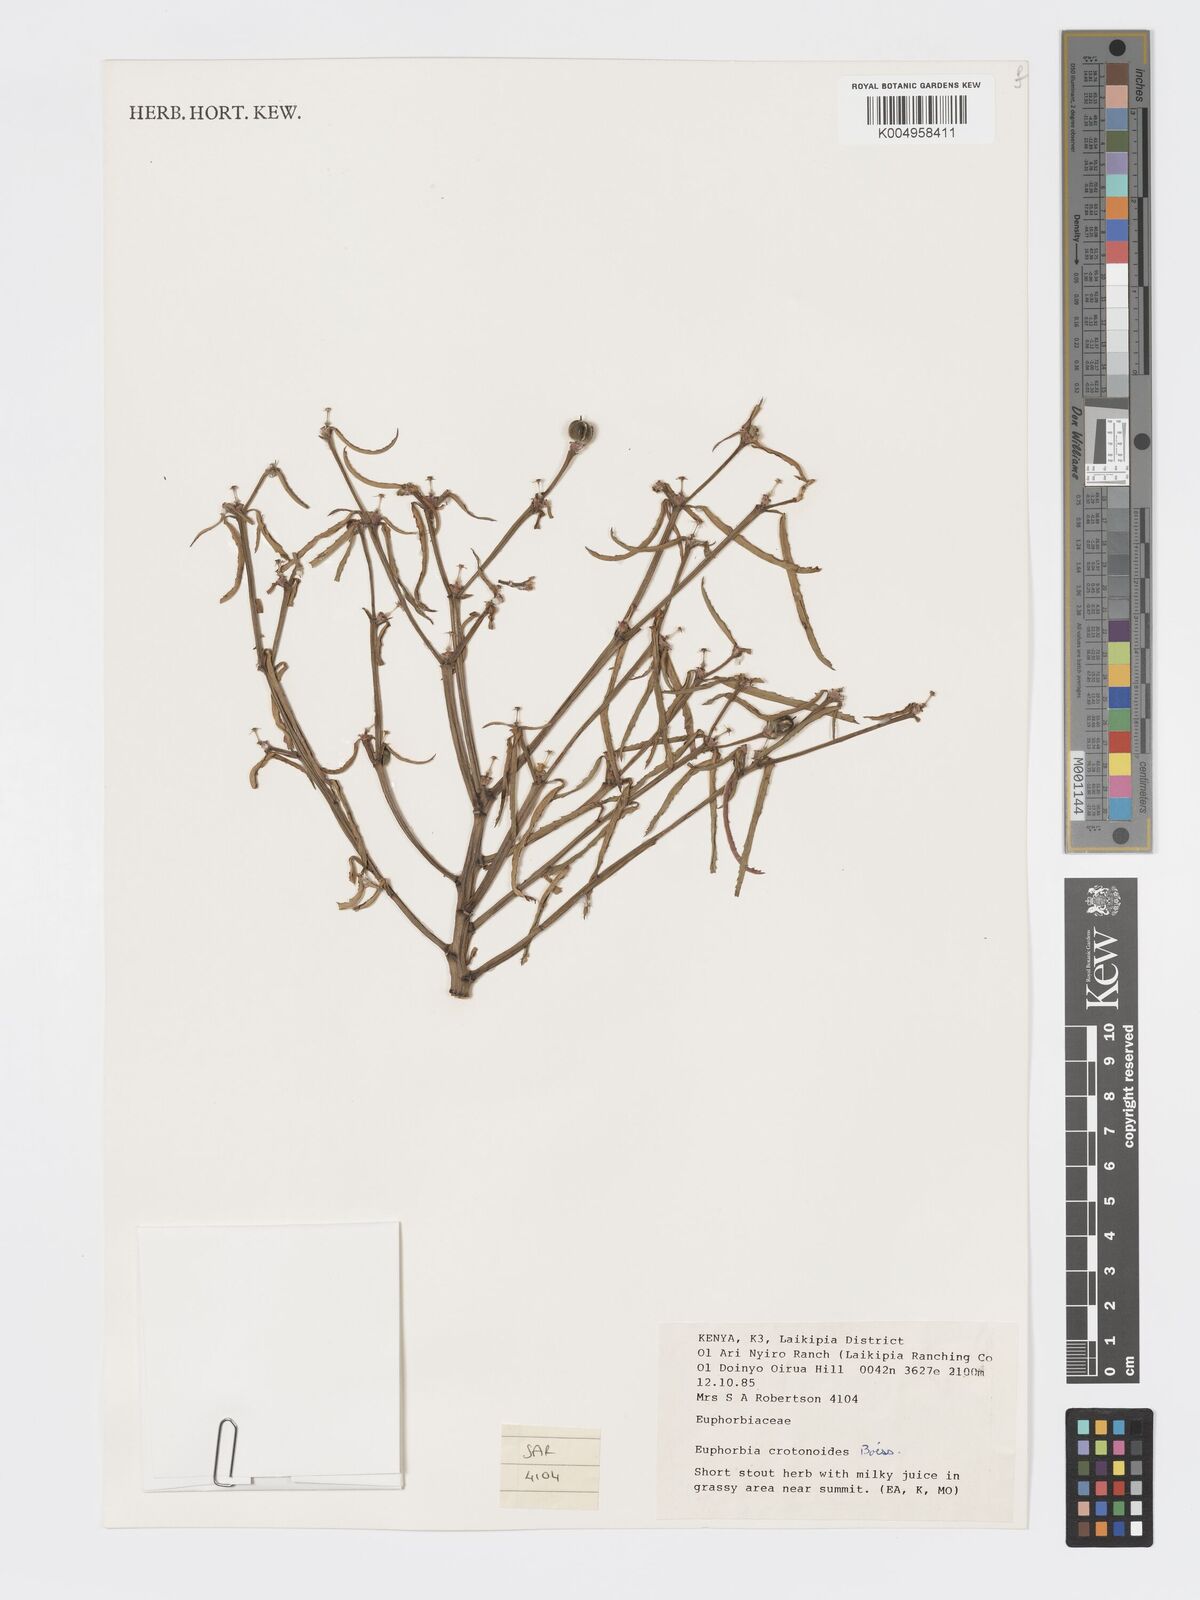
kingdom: Plantae
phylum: Tracheophyta
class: Magnoliopsida
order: Malpighiales
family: Euphorbiaceae
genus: Euphorbia
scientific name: Euphorbia crotonoides
